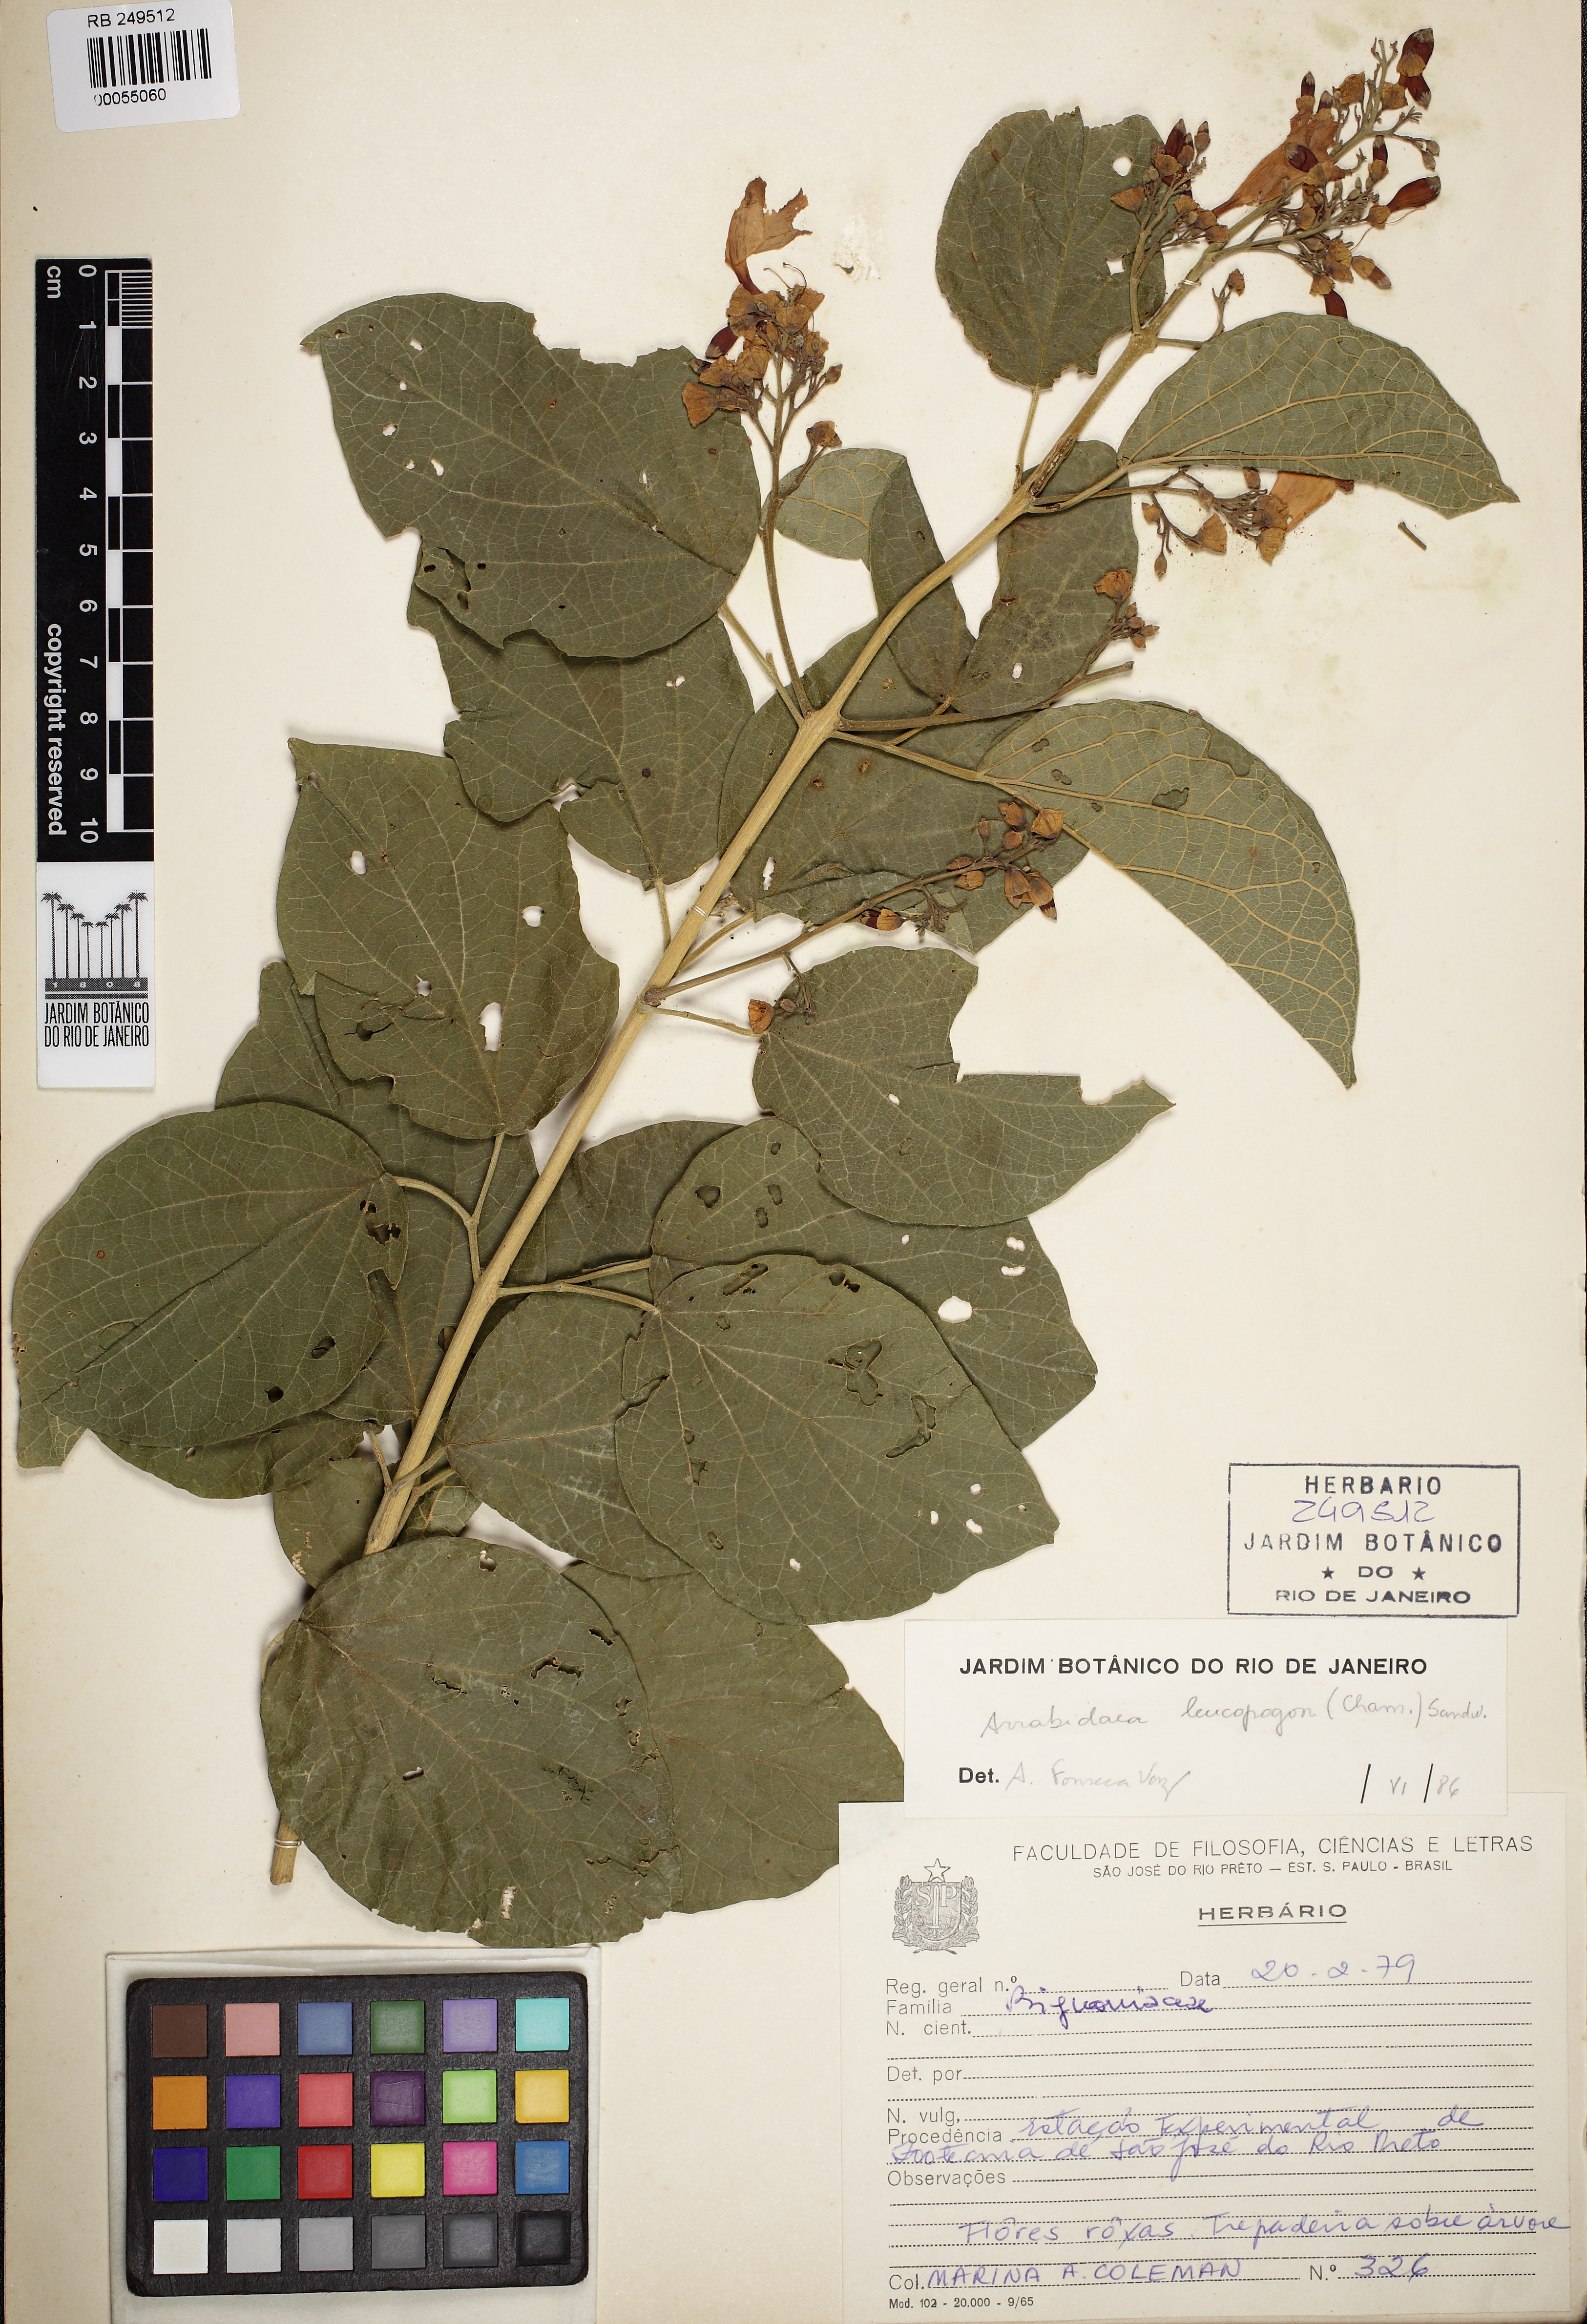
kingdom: Plantae
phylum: Tracheophyta
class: Magnoliopsida
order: Lamiales
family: Bignoniaceae
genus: Fridericia
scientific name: Fridericia leucopogon
